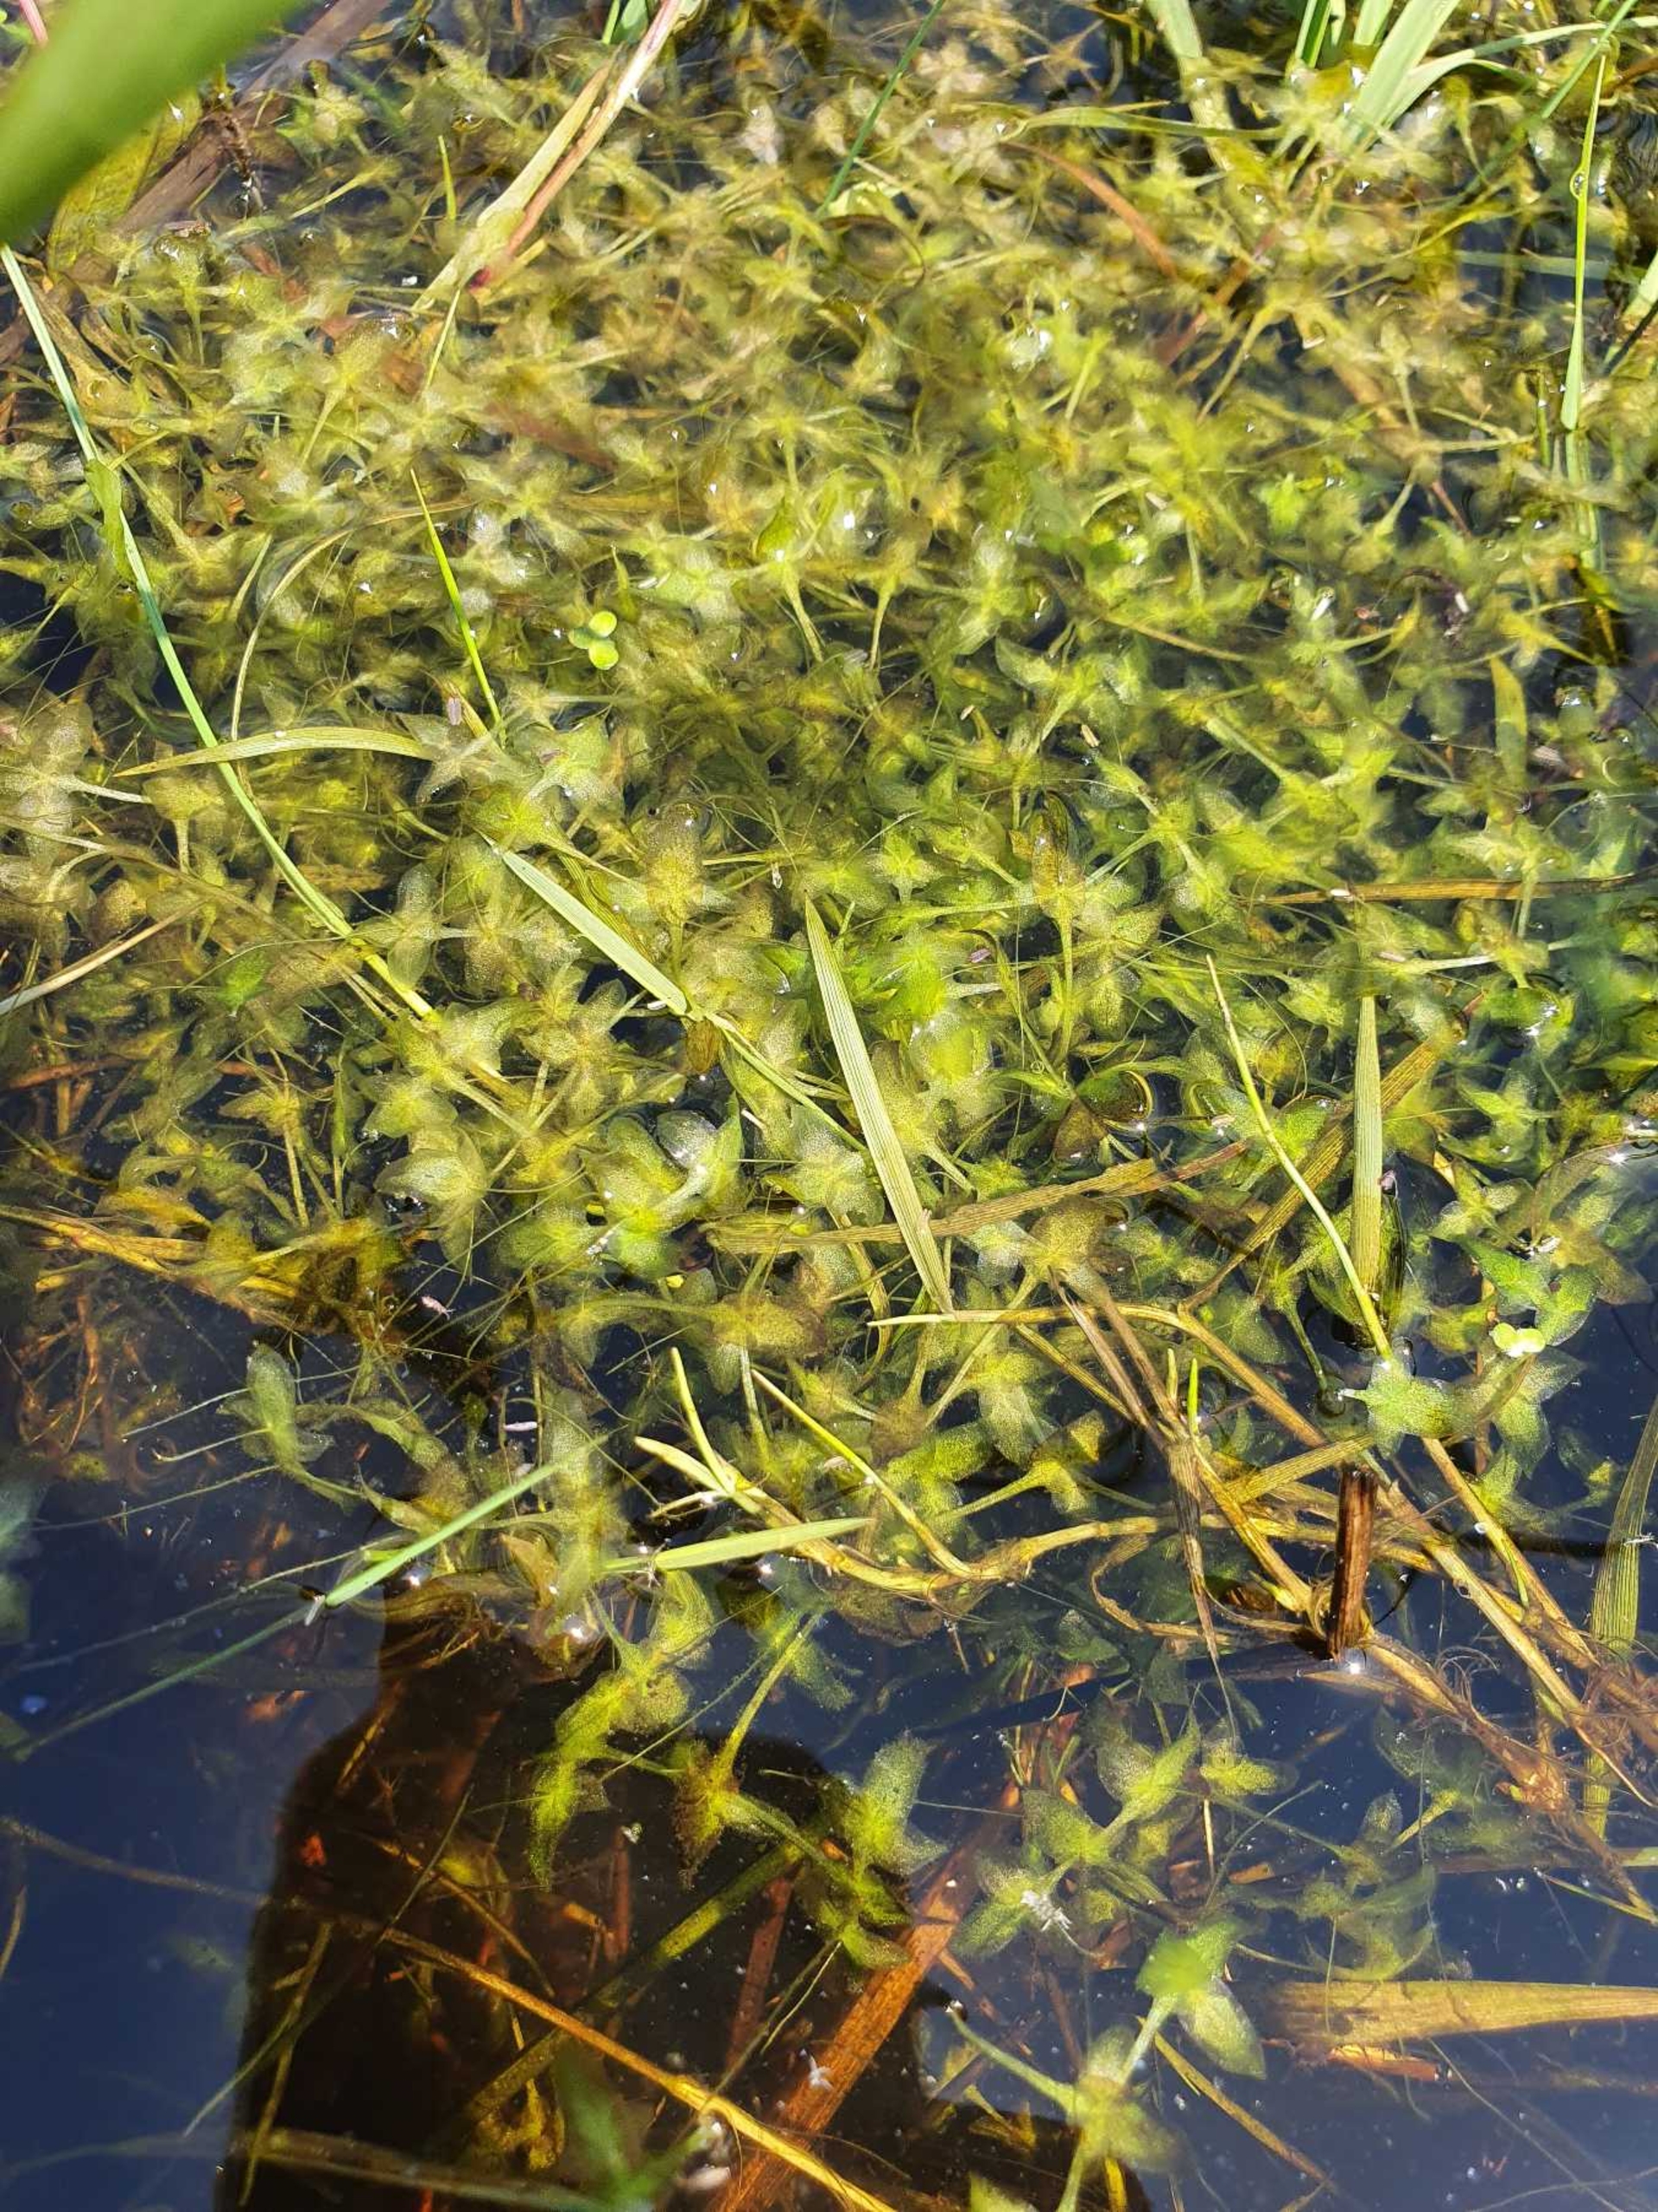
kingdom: Plantae
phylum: Tracheophyta
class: Liliopsida
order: Alismatales
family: Araceae
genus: Lemna
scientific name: Lemna trisulca
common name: Kors-andemad
